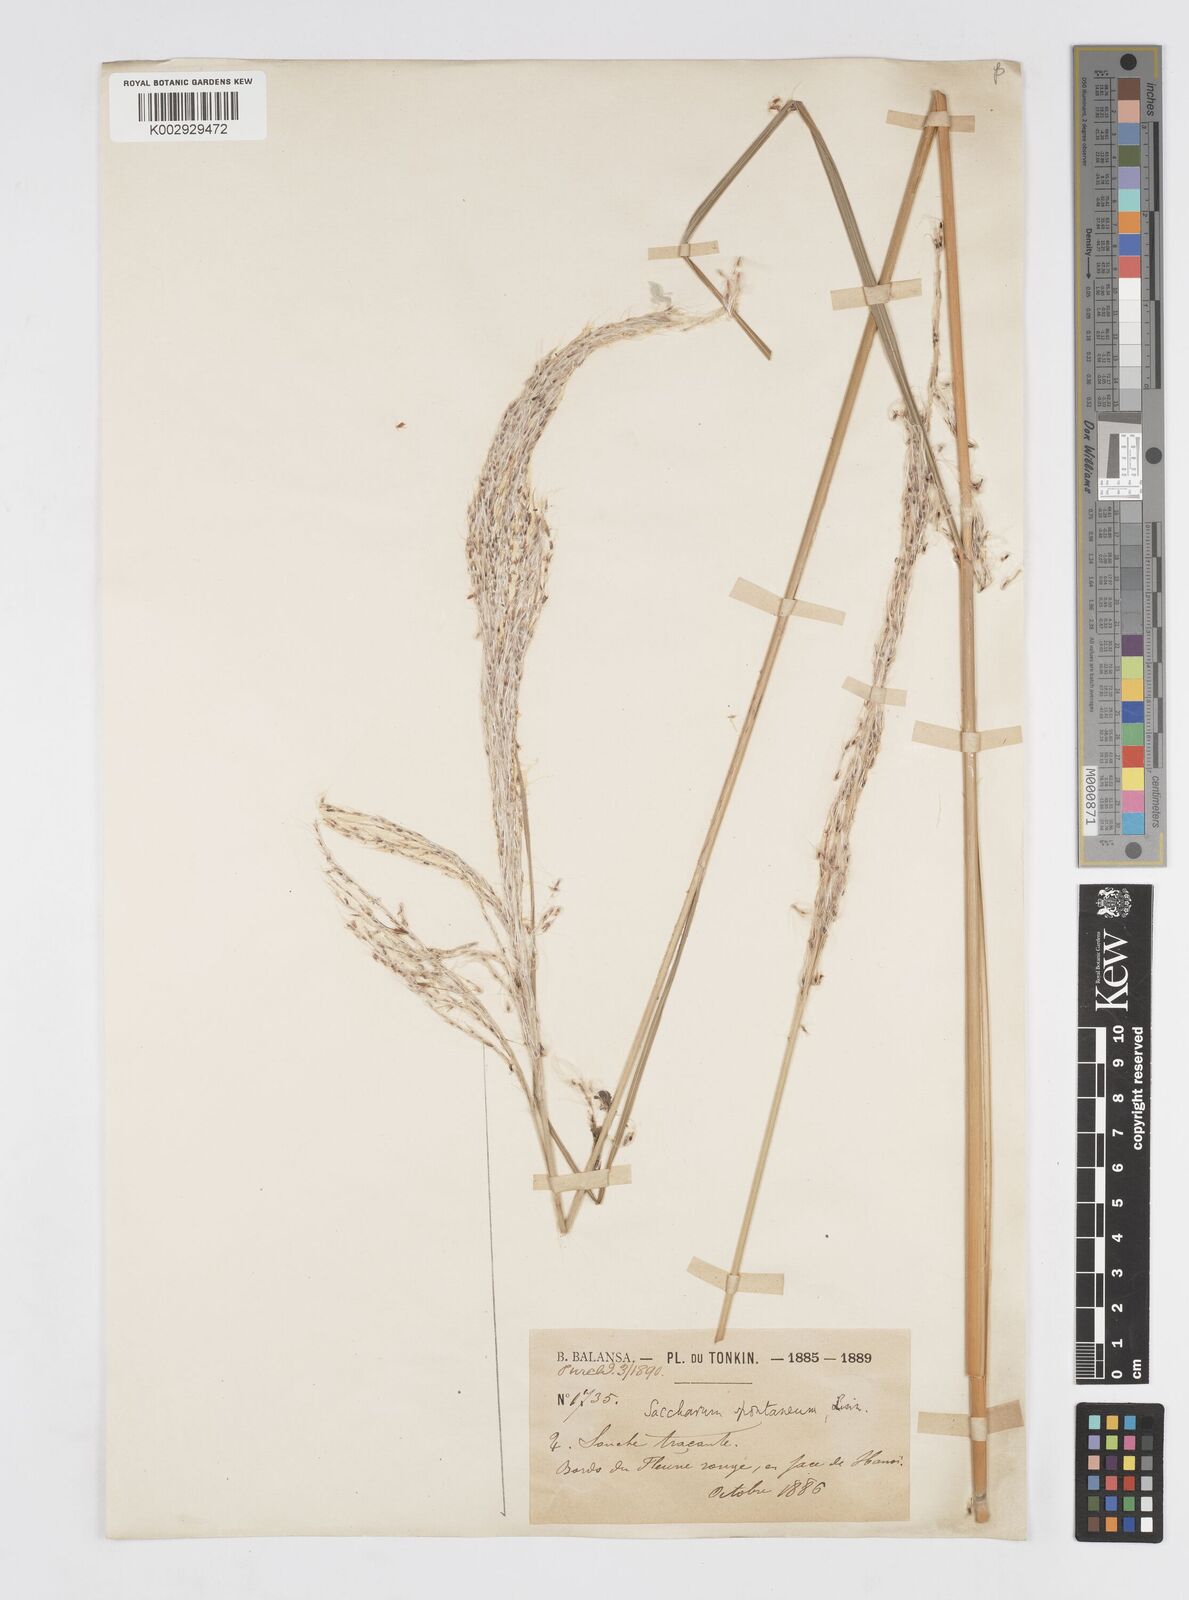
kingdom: Plantae
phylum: Tracheophyta
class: Liliopsida
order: Poales
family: Poaceae
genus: Saccharum
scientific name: Saccharum spontaneum
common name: Wild sugarcane
